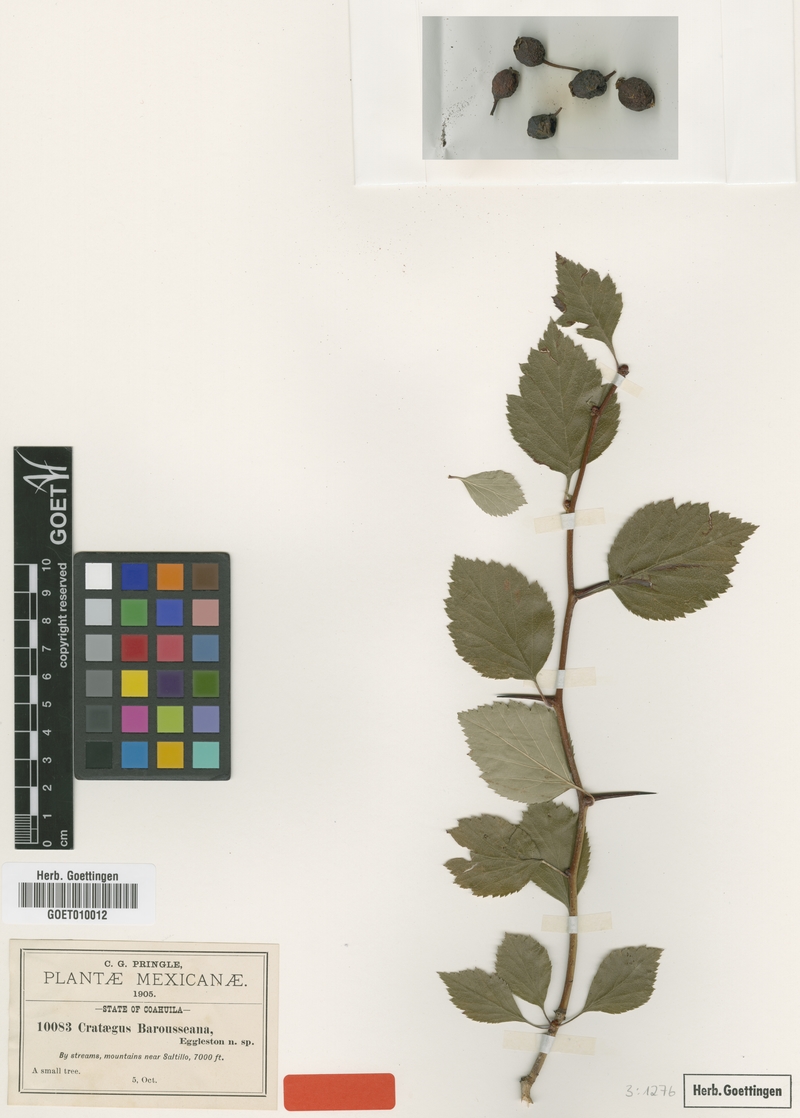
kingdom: Plantae
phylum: Tracheophyta
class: Magnoliopsida
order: Rosales
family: Rosaceae
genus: Crataegus
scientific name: Crataegus baroussana
